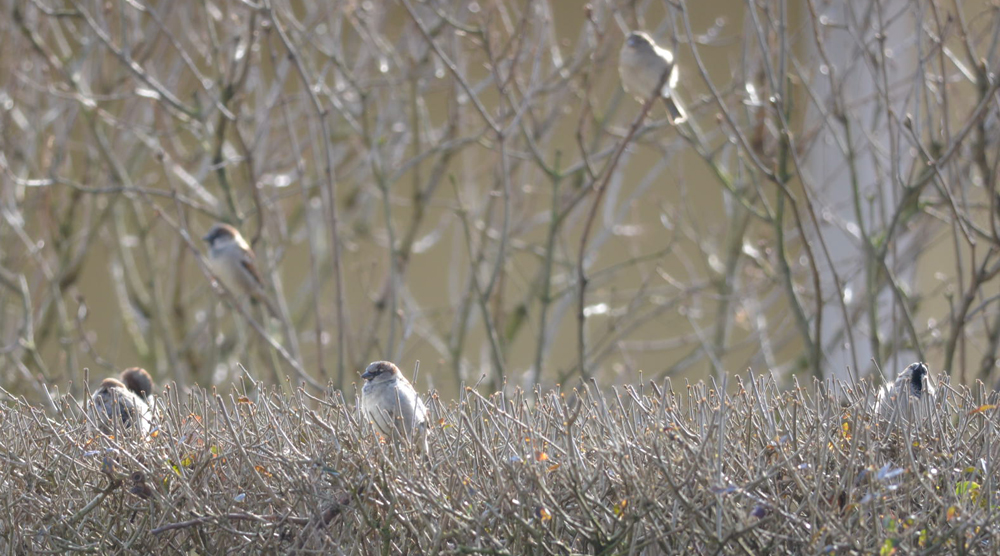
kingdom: Animalia
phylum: Chordata
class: Aves
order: Passeriformes
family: Passeridae
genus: Passer
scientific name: Passer domesticus
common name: House sparrow
